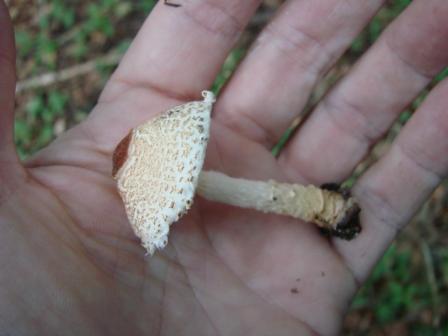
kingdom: Fungi
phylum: Basidiomycota
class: Agaricomycetes
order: Agaricales
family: Agaricaceae
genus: Lepiota
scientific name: Lepiota magnispora
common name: gulfnugget parasolhat
